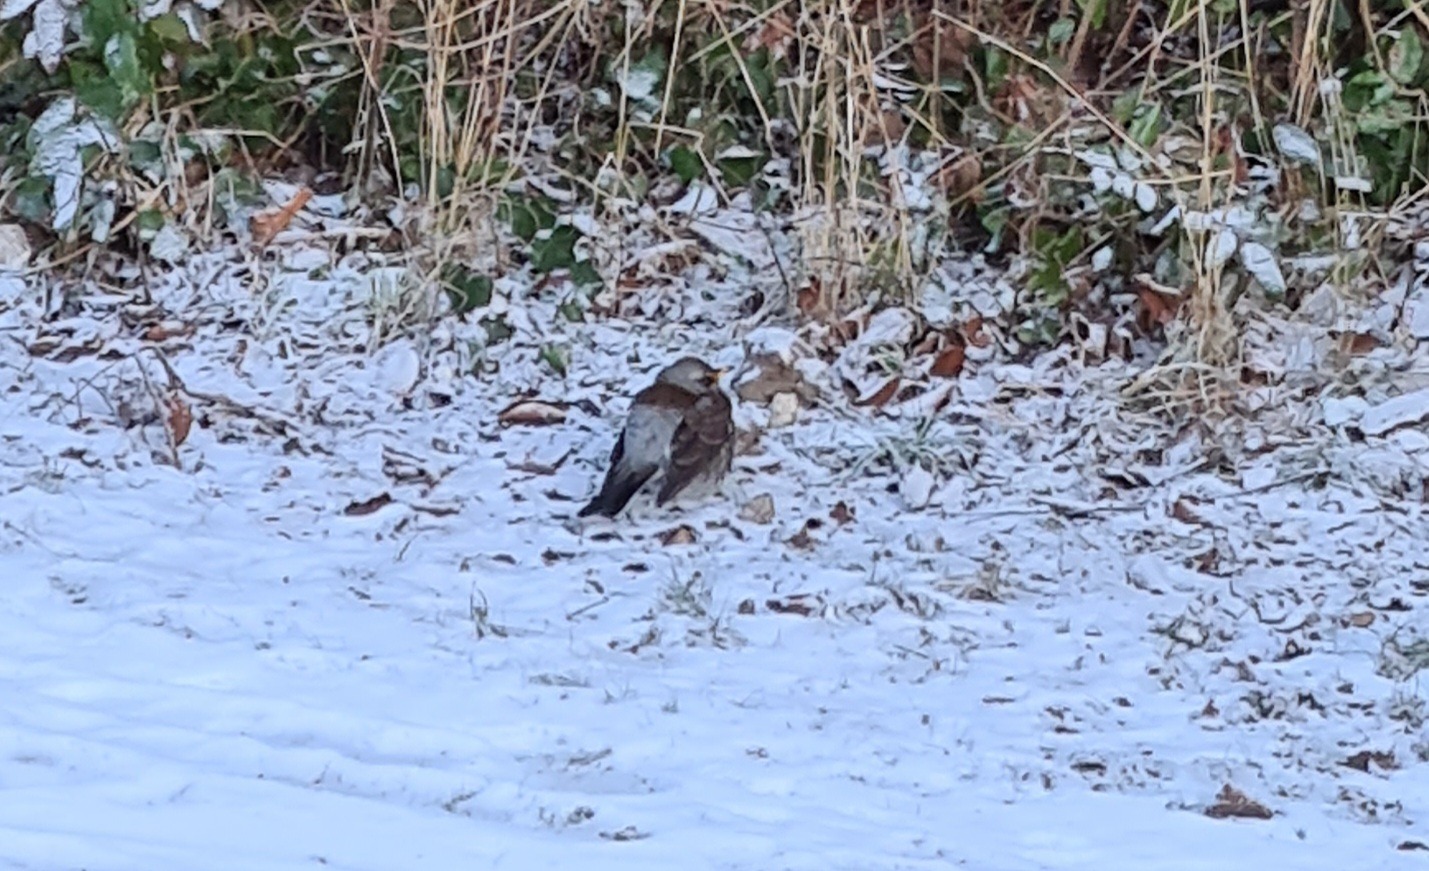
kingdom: Animalia
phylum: Chordata
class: Aves
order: Passeriformes
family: Turdidae
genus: Turdus
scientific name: Turdus pilaris
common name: Sjagger
